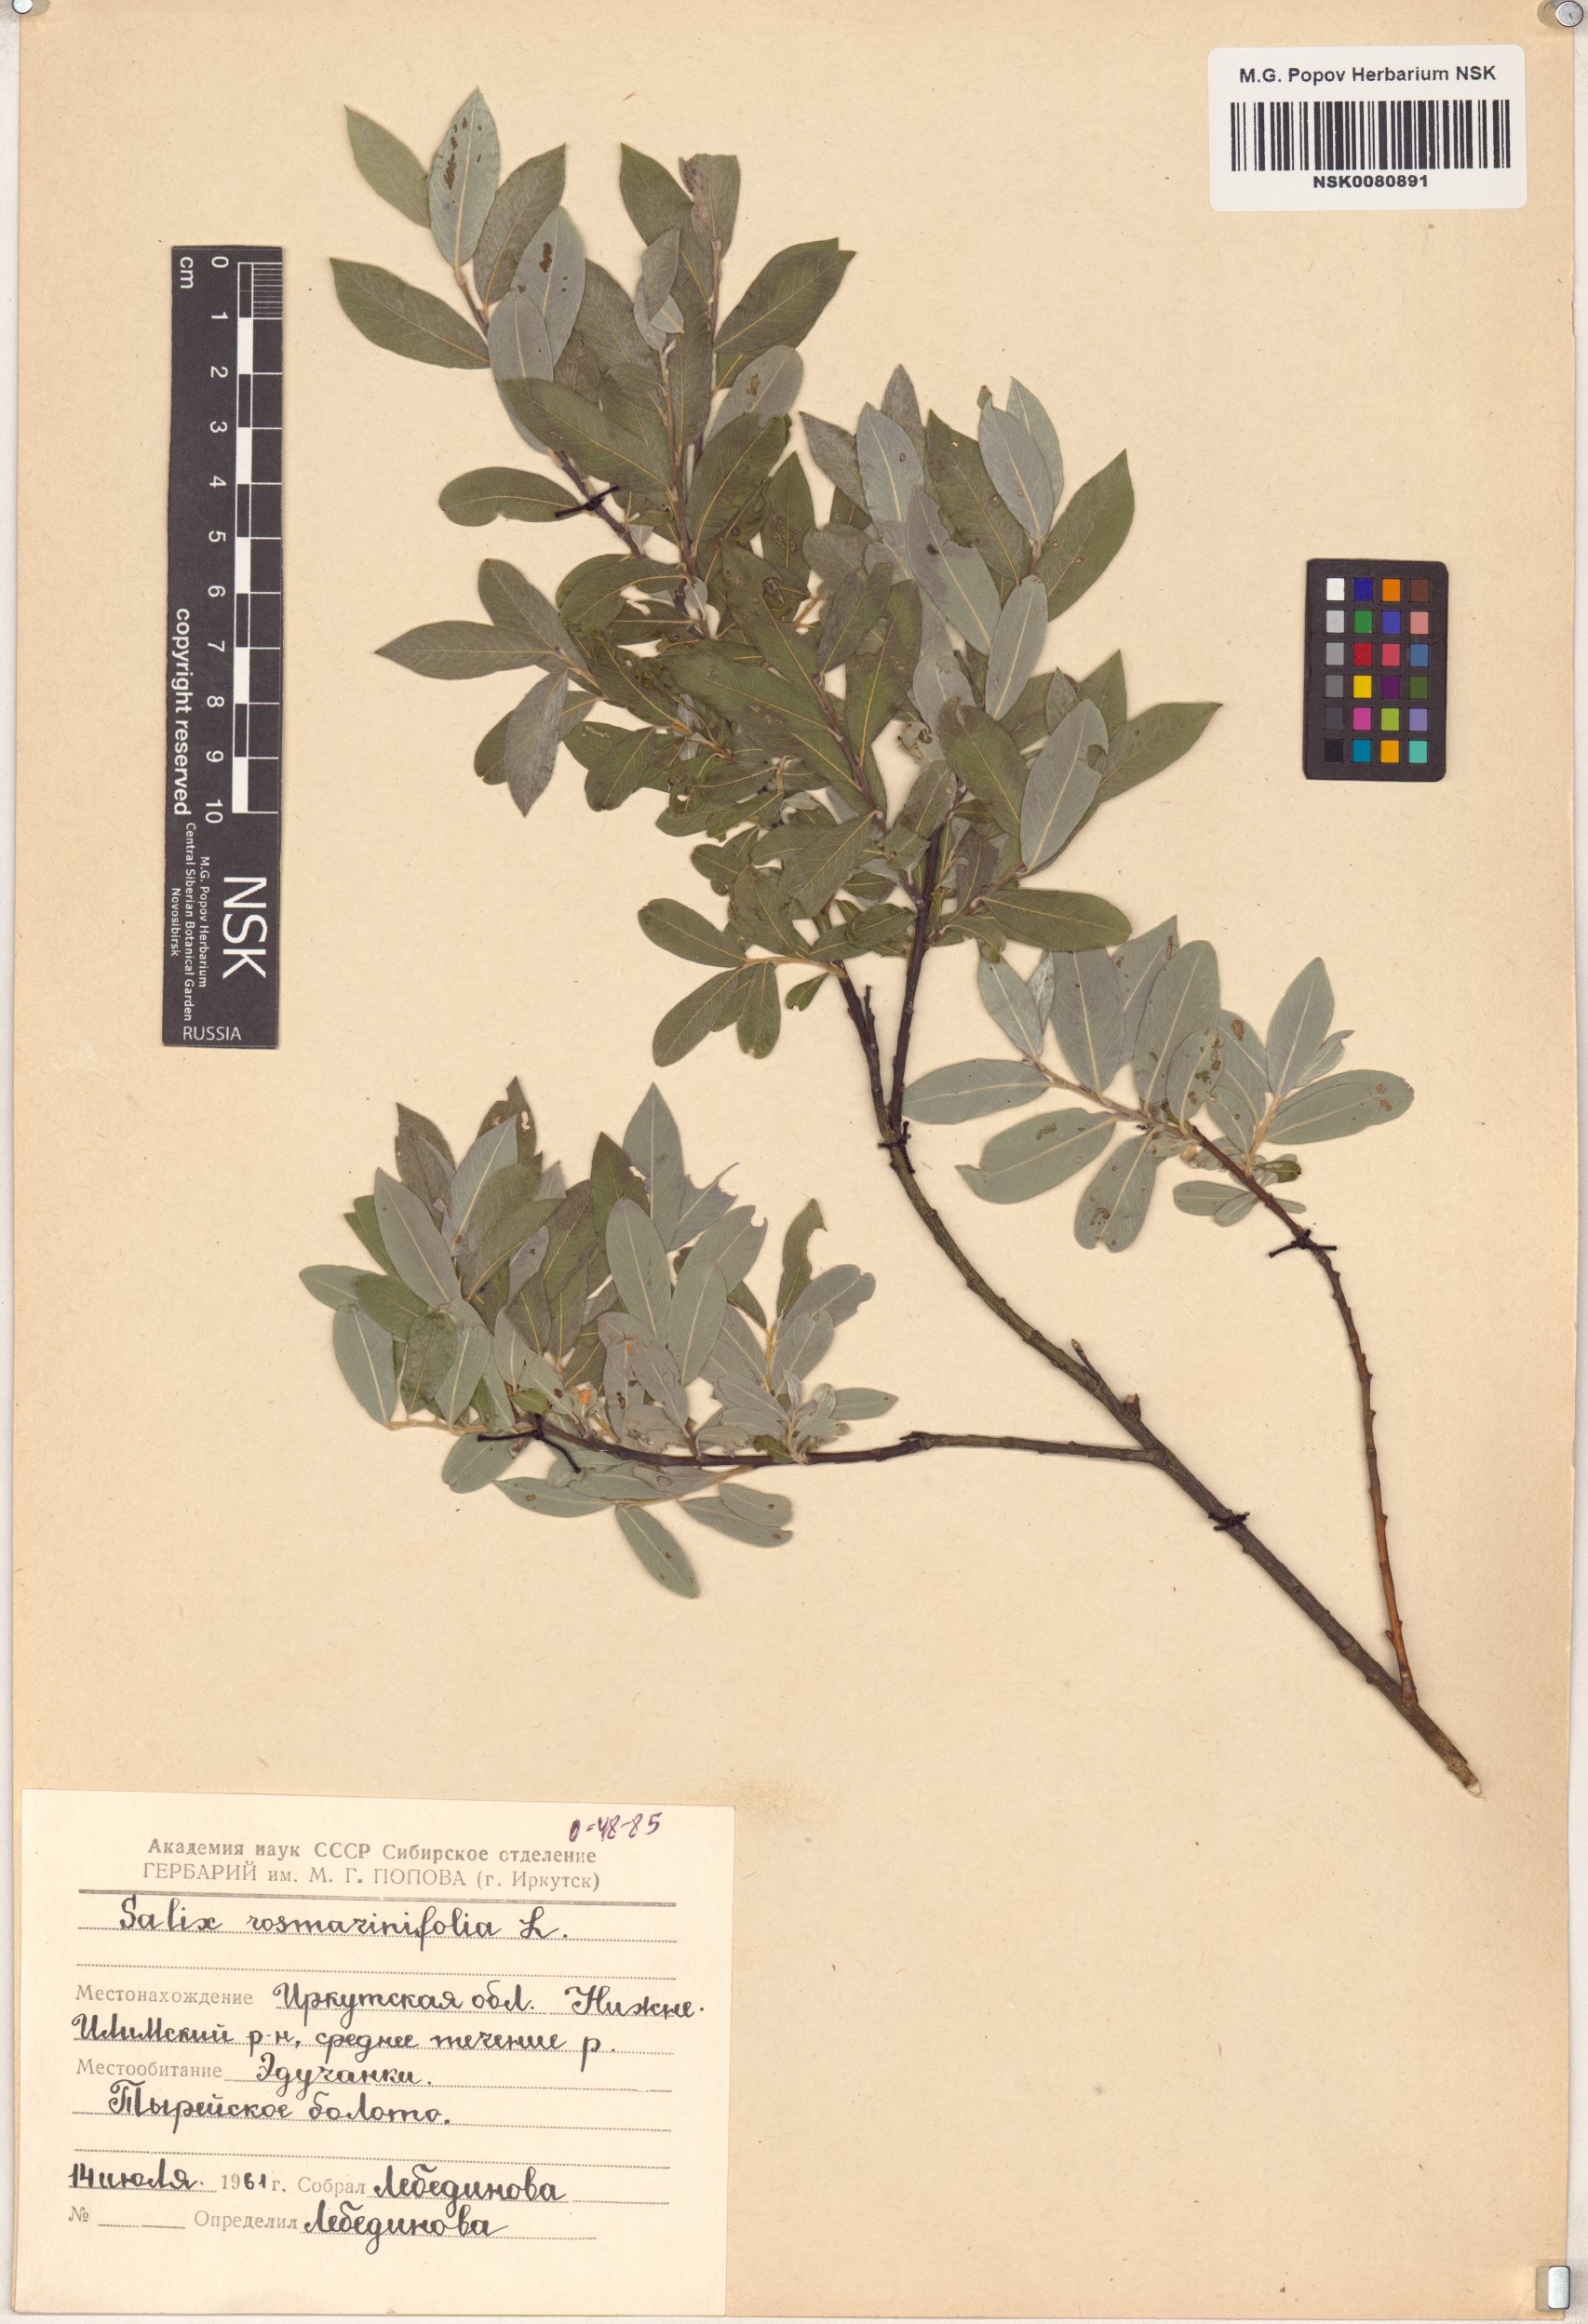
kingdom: Plantae
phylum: Tracheophyta
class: Magnoliopsida
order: Malpighiales
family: Salicaceae
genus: Salix
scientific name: Salix rosmarinifolia
